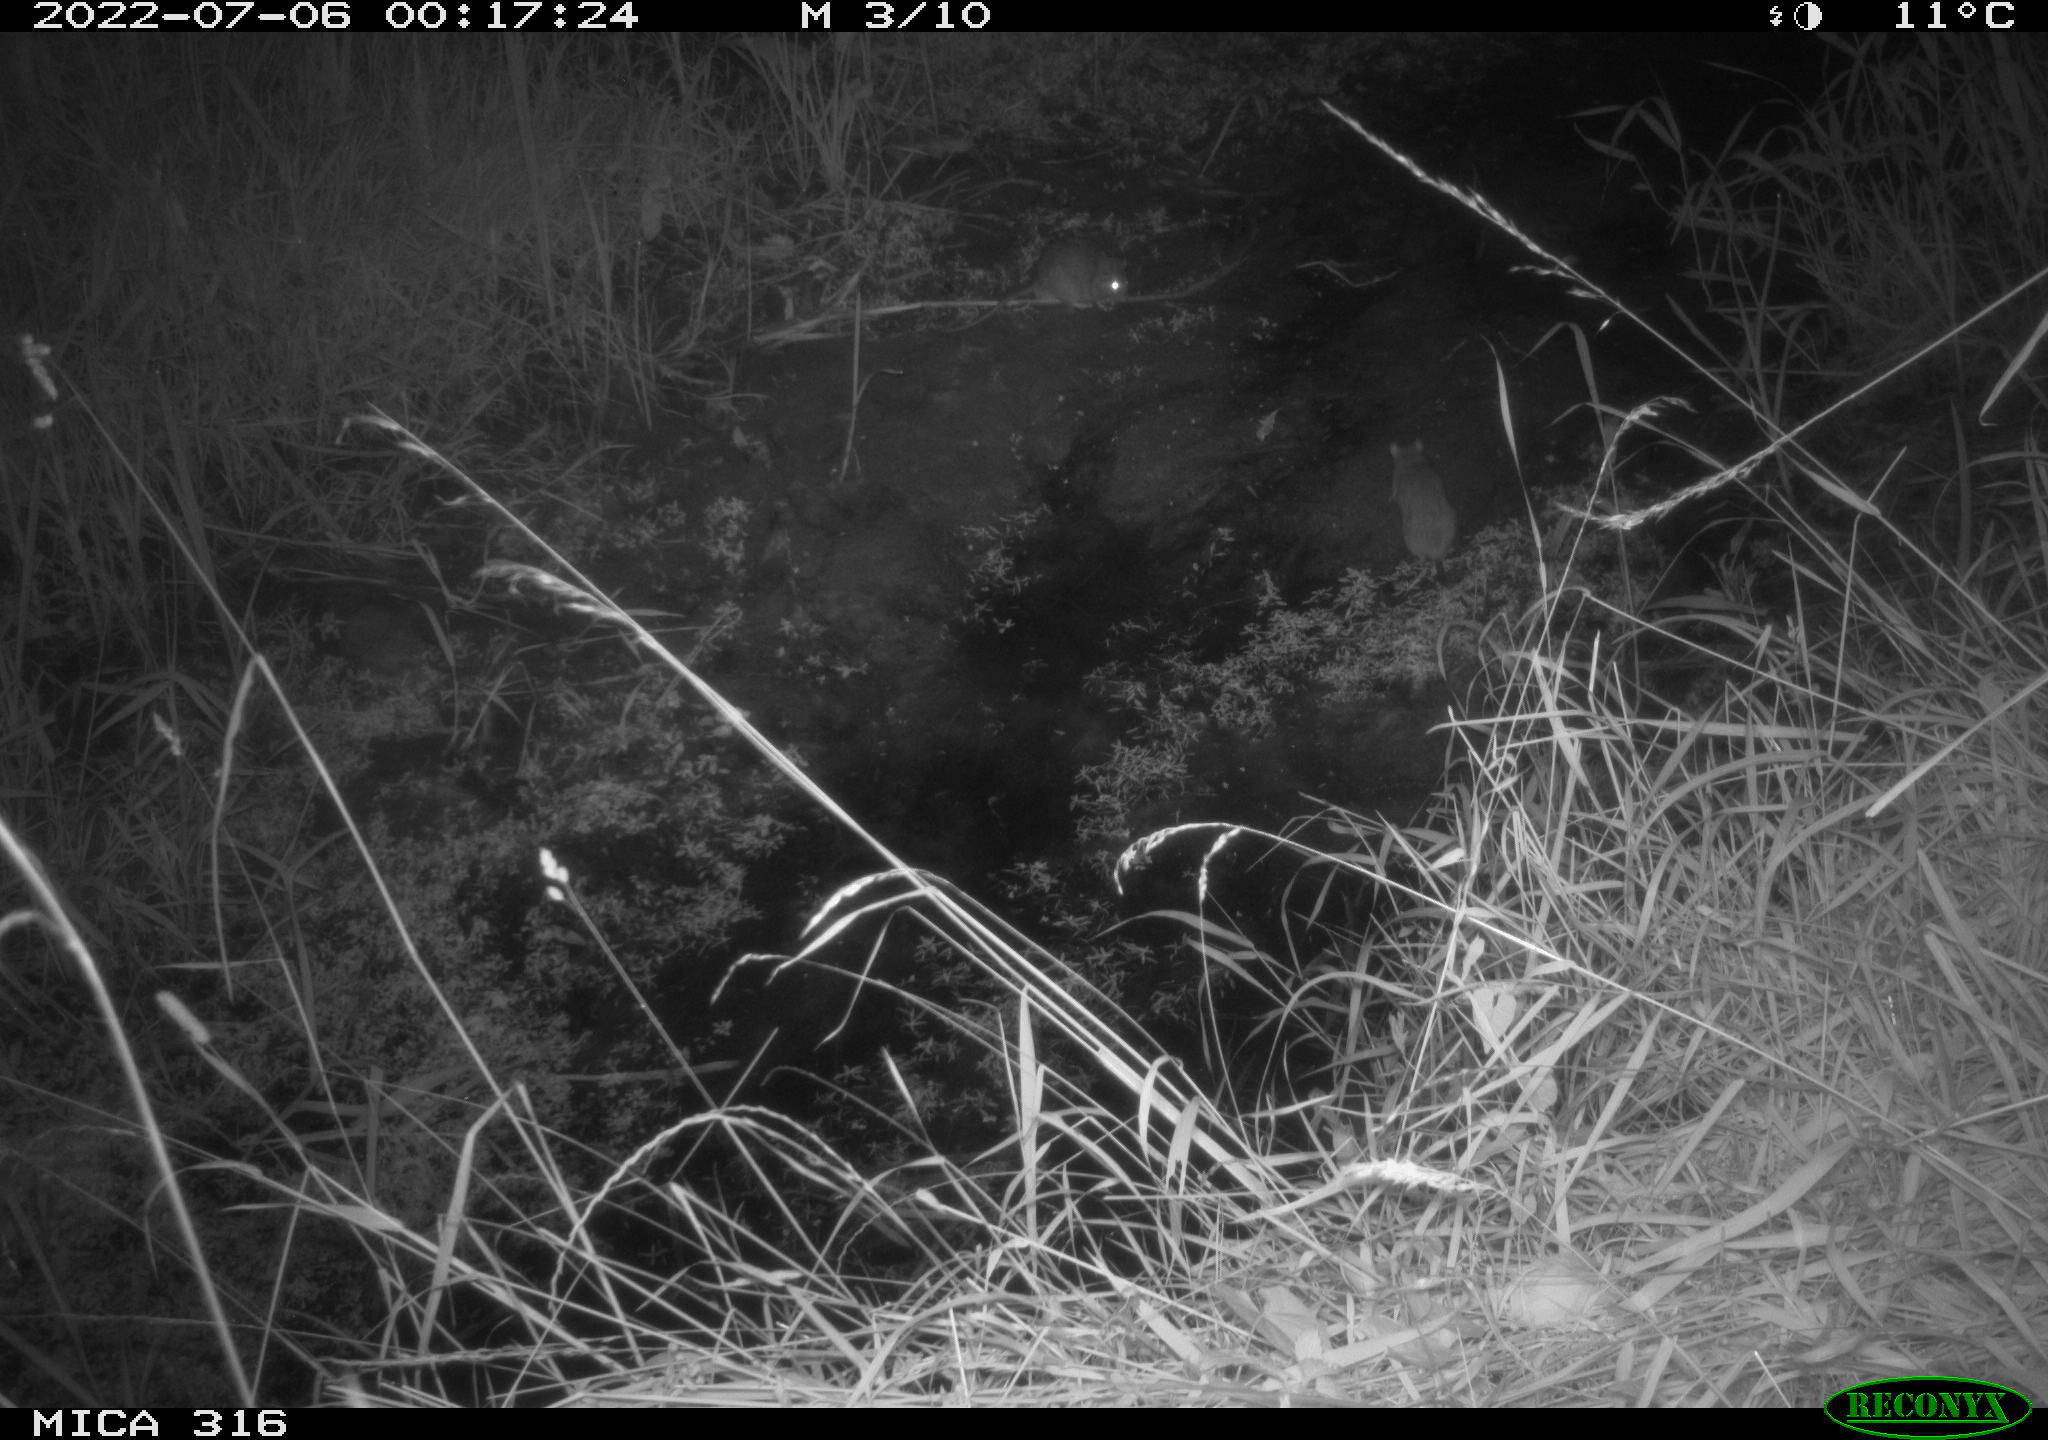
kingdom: Animalia
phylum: Chordata
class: Mammalia
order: Rodentia
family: Muridae
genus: Rattus
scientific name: Rattus norvegicus
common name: Brown rat
